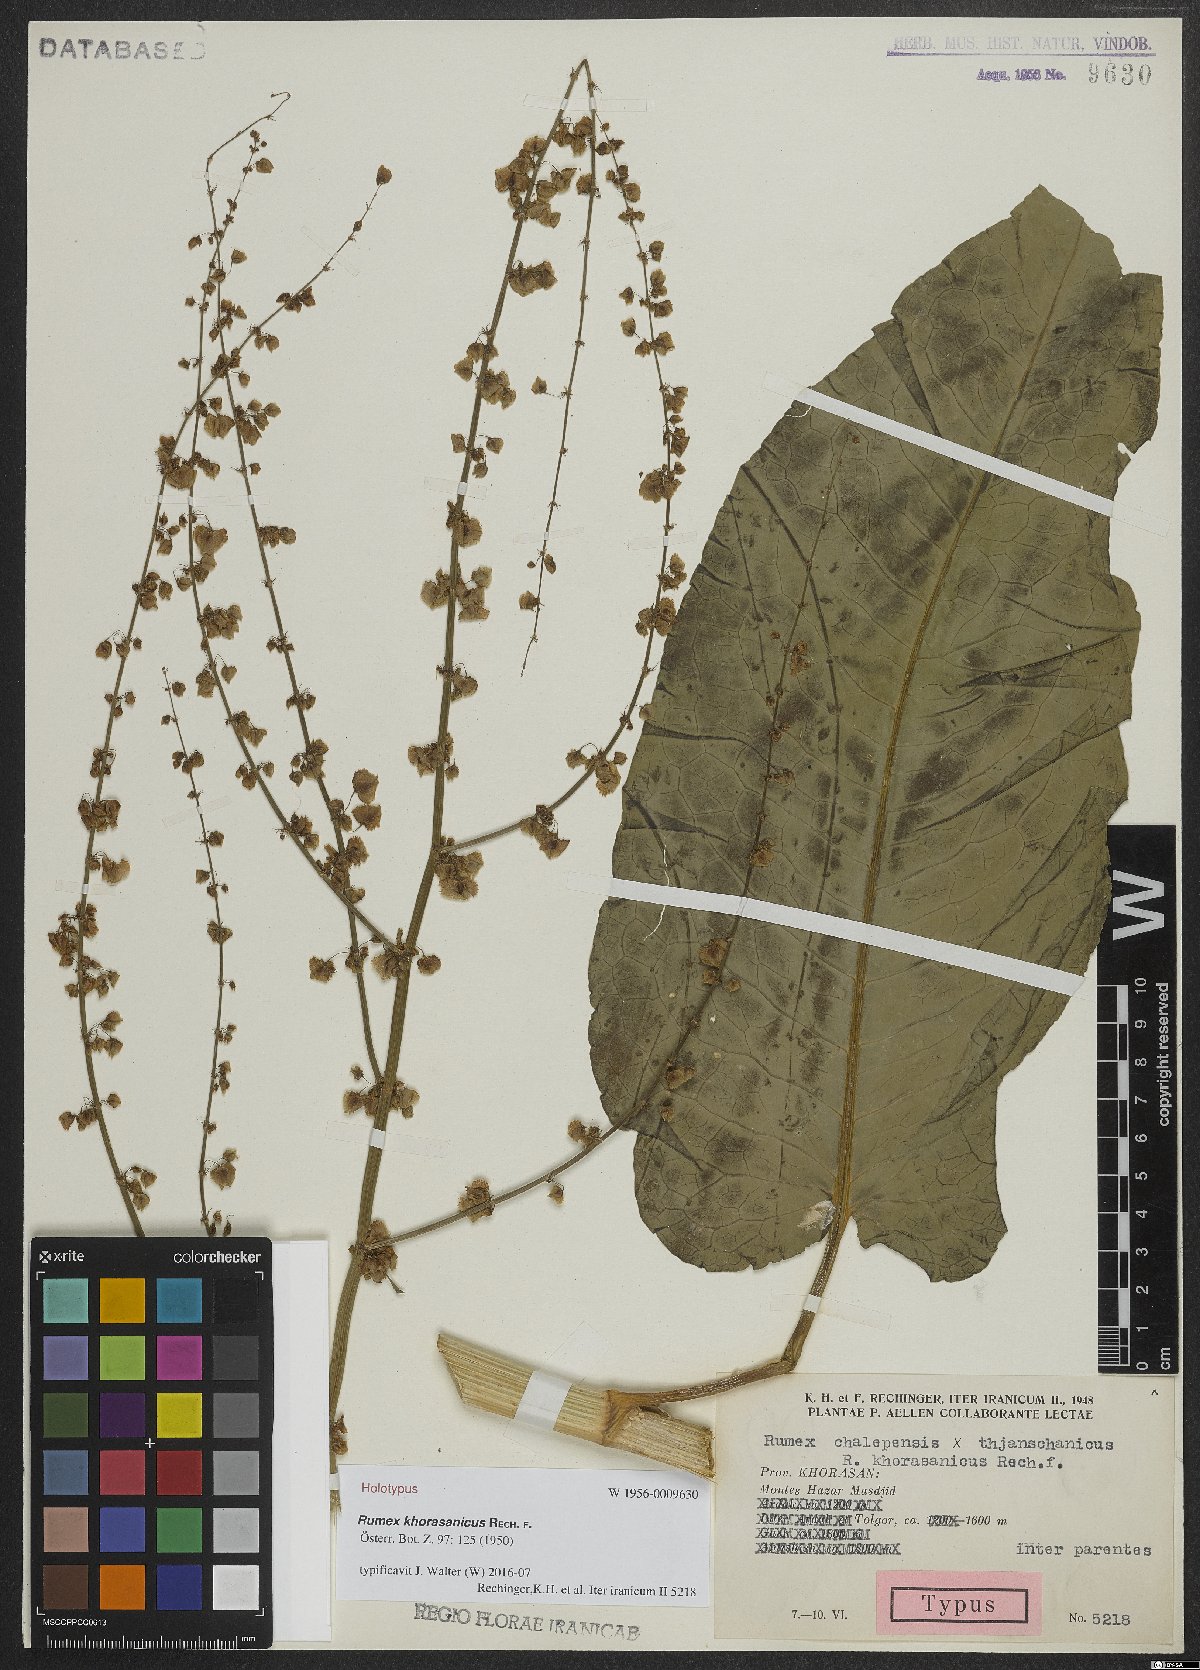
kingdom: Plantae
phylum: Tracheophyta
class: Magnoliopsida
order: Caryophyllales
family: Polygonaceae
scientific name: Polygonaceae
